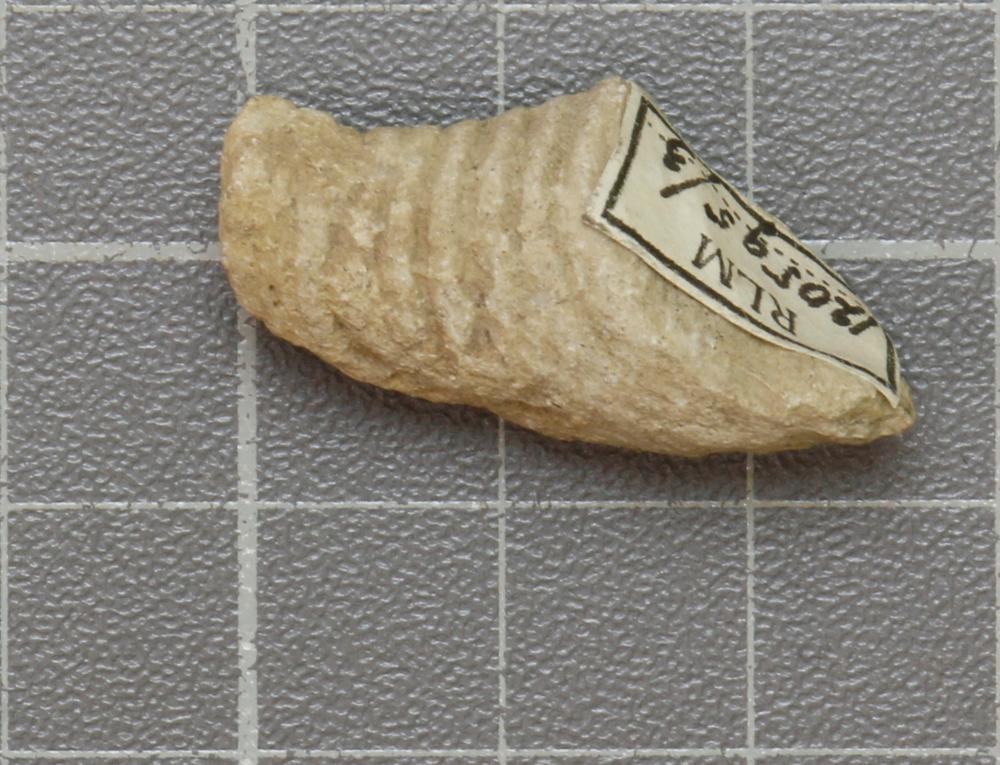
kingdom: Animalia
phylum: Mollusca
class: Cephalopoda
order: Nautilida
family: Nautilidae
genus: Richardsonoceras
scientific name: Richardsonoceras sinuososeptatum
